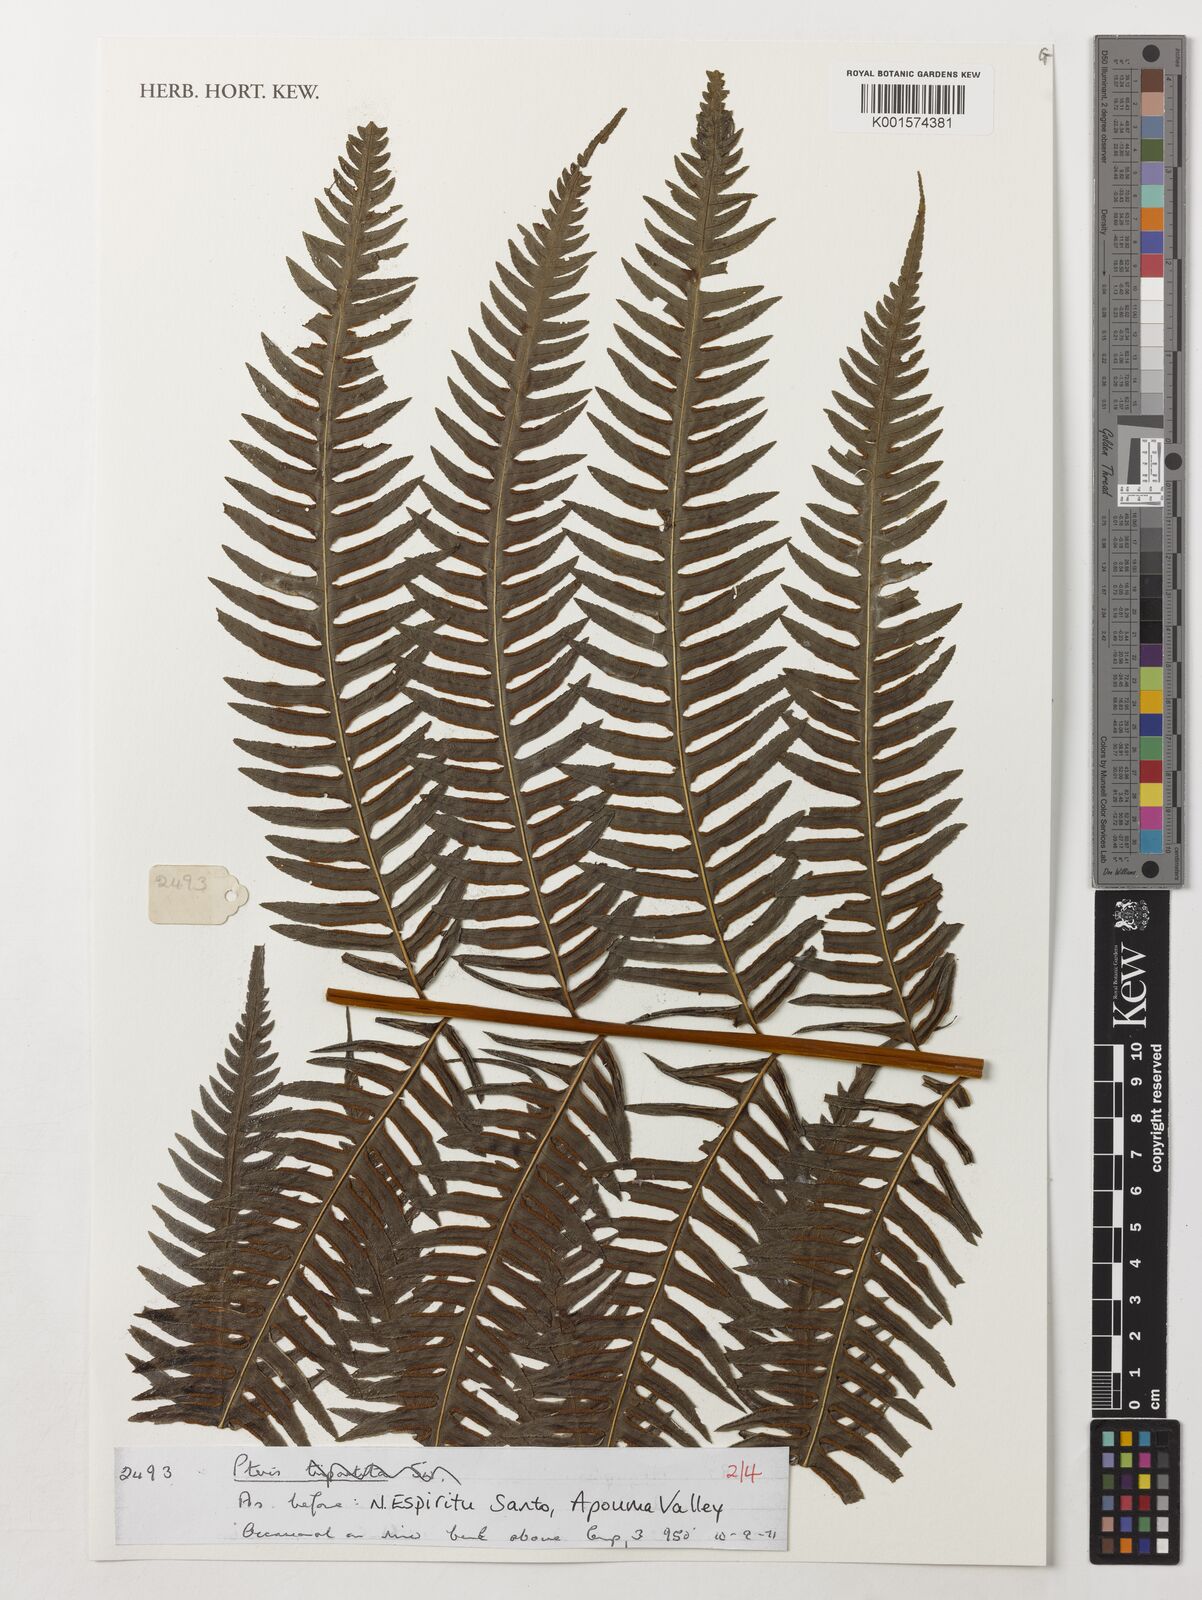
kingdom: Plantae
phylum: Tracheophyta
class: Polypodiopsida
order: Polypodiales
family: Pteridaceae
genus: Pteris
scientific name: Pteris
